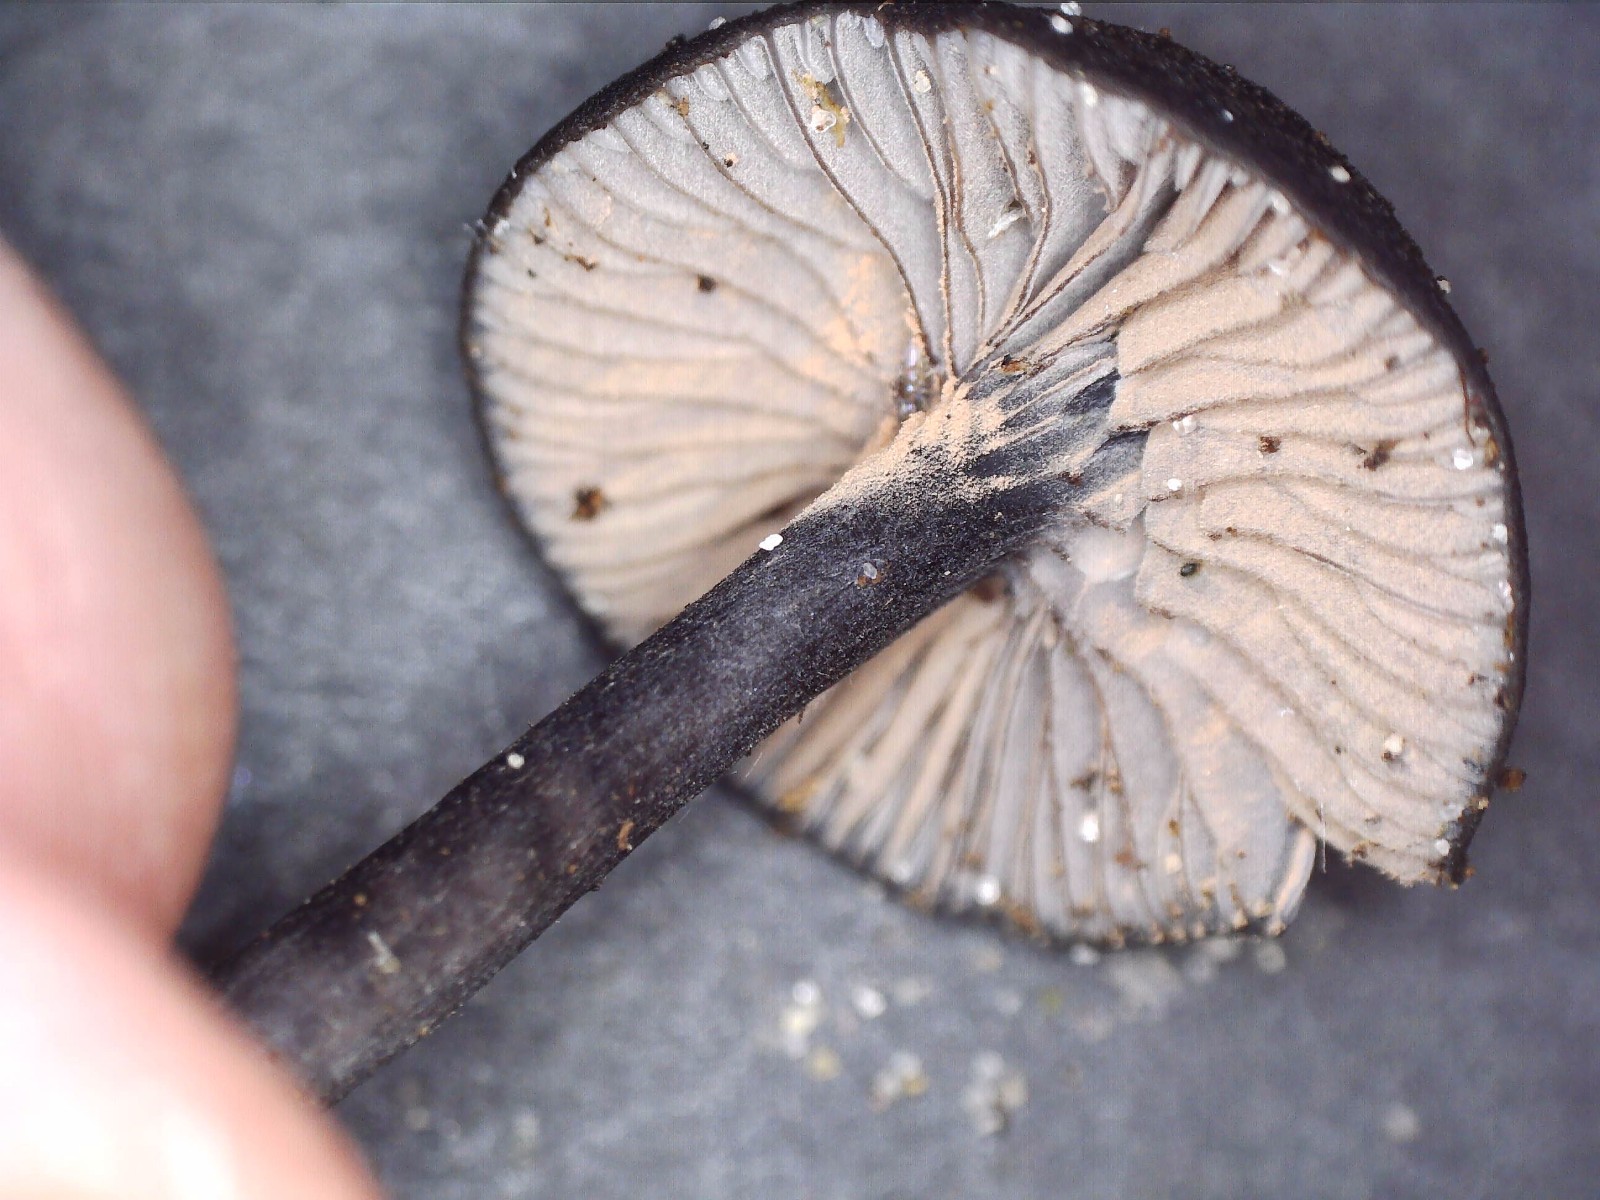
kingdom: Fungi
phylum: Basidiomycota
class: Agaricomycetes
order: Agaricales
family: Entolomataceae
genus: Entoloma
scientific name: Entoloma chalybeum
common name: blåbladet rødblad
